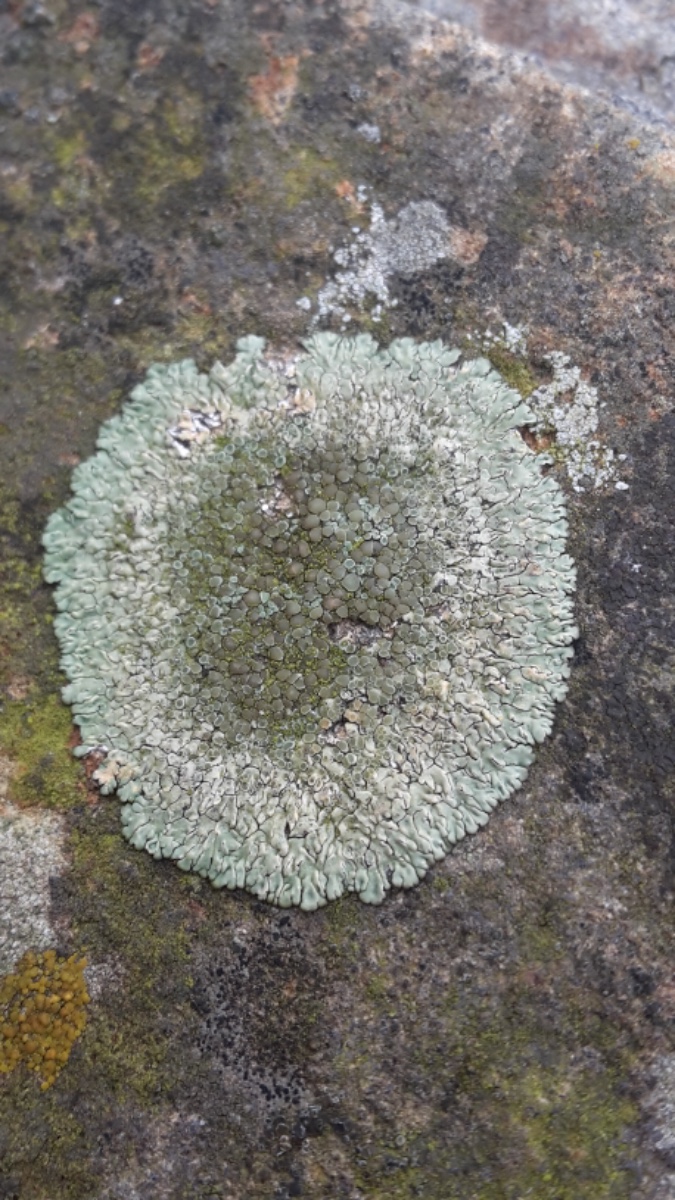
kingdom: Fungi
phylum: Ascomycota
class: Lecanoromycetes
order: Lecanorales
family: Lecanoraceae
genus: Protoparmeliopsis
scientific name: Protoparmeliopsis muralis
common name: randfliget kantskivelav
